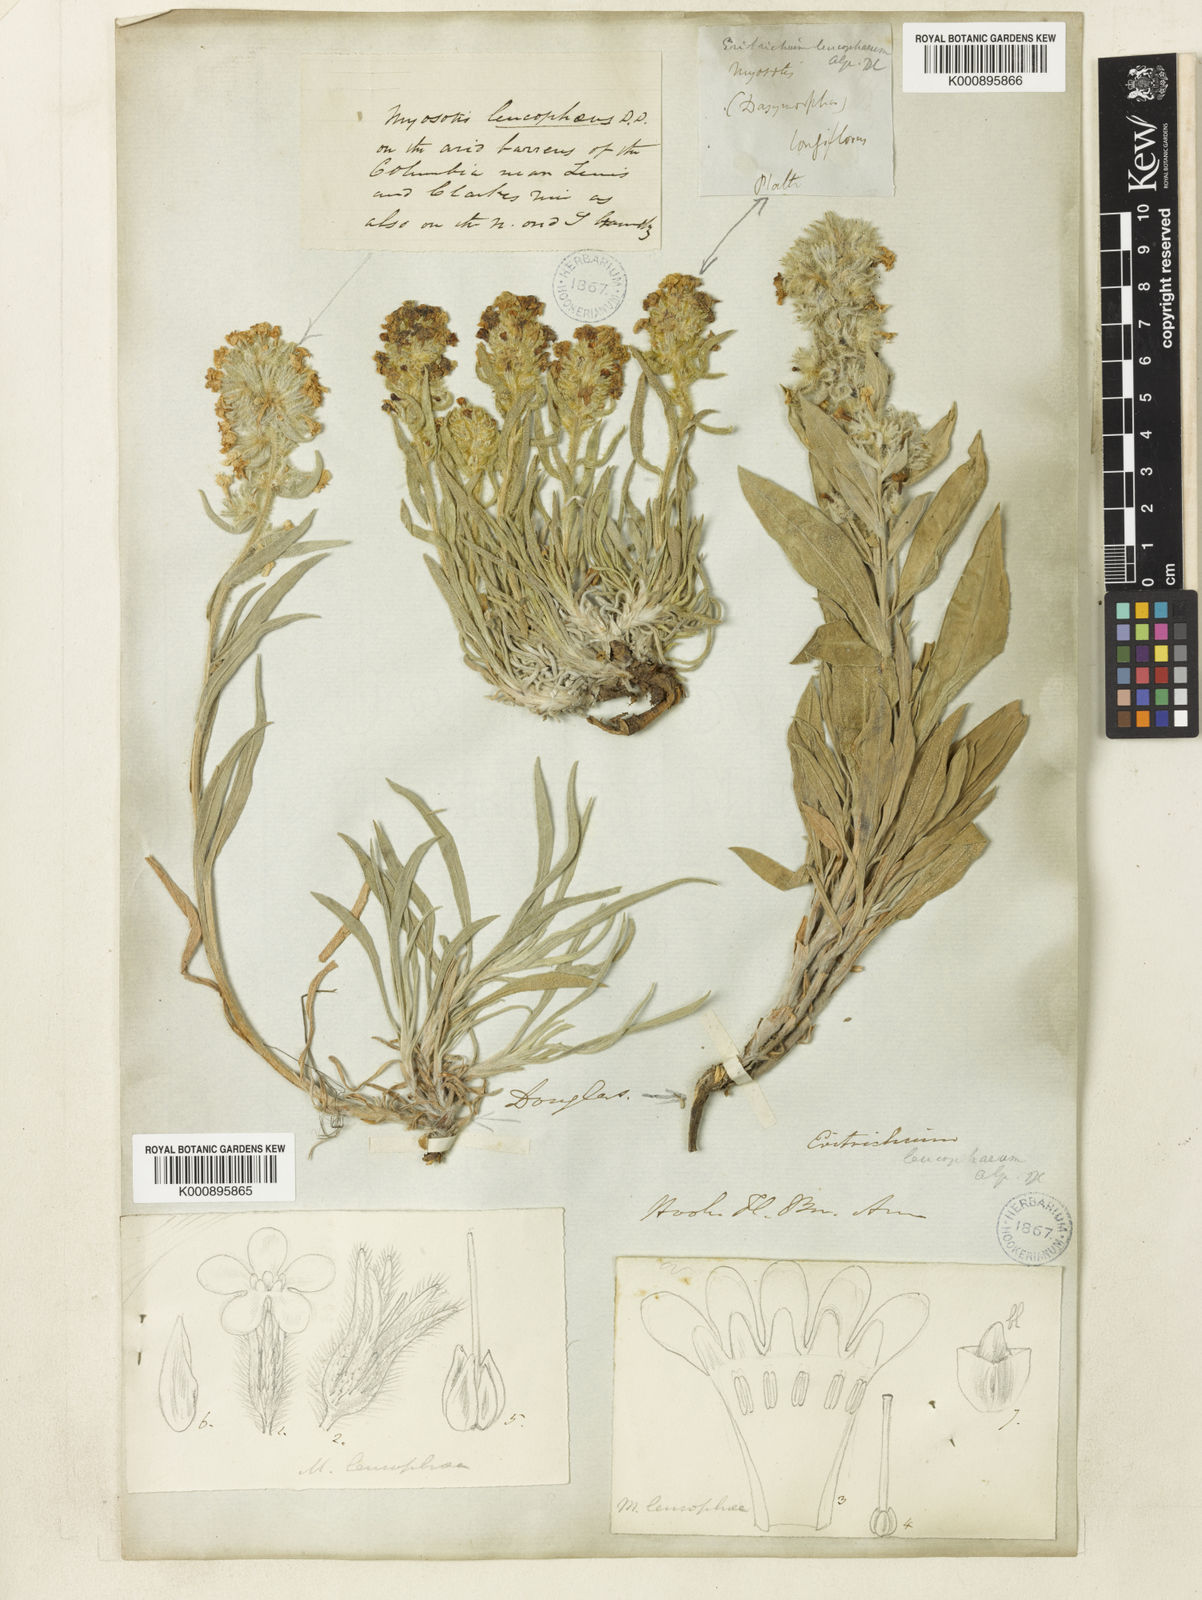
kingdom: Plantae
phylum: Tracheophyta
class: Magnoliopsida
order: Boraginales
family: Boraginaceae
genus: Oreocarya
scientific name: Oreocarya leucophaea
